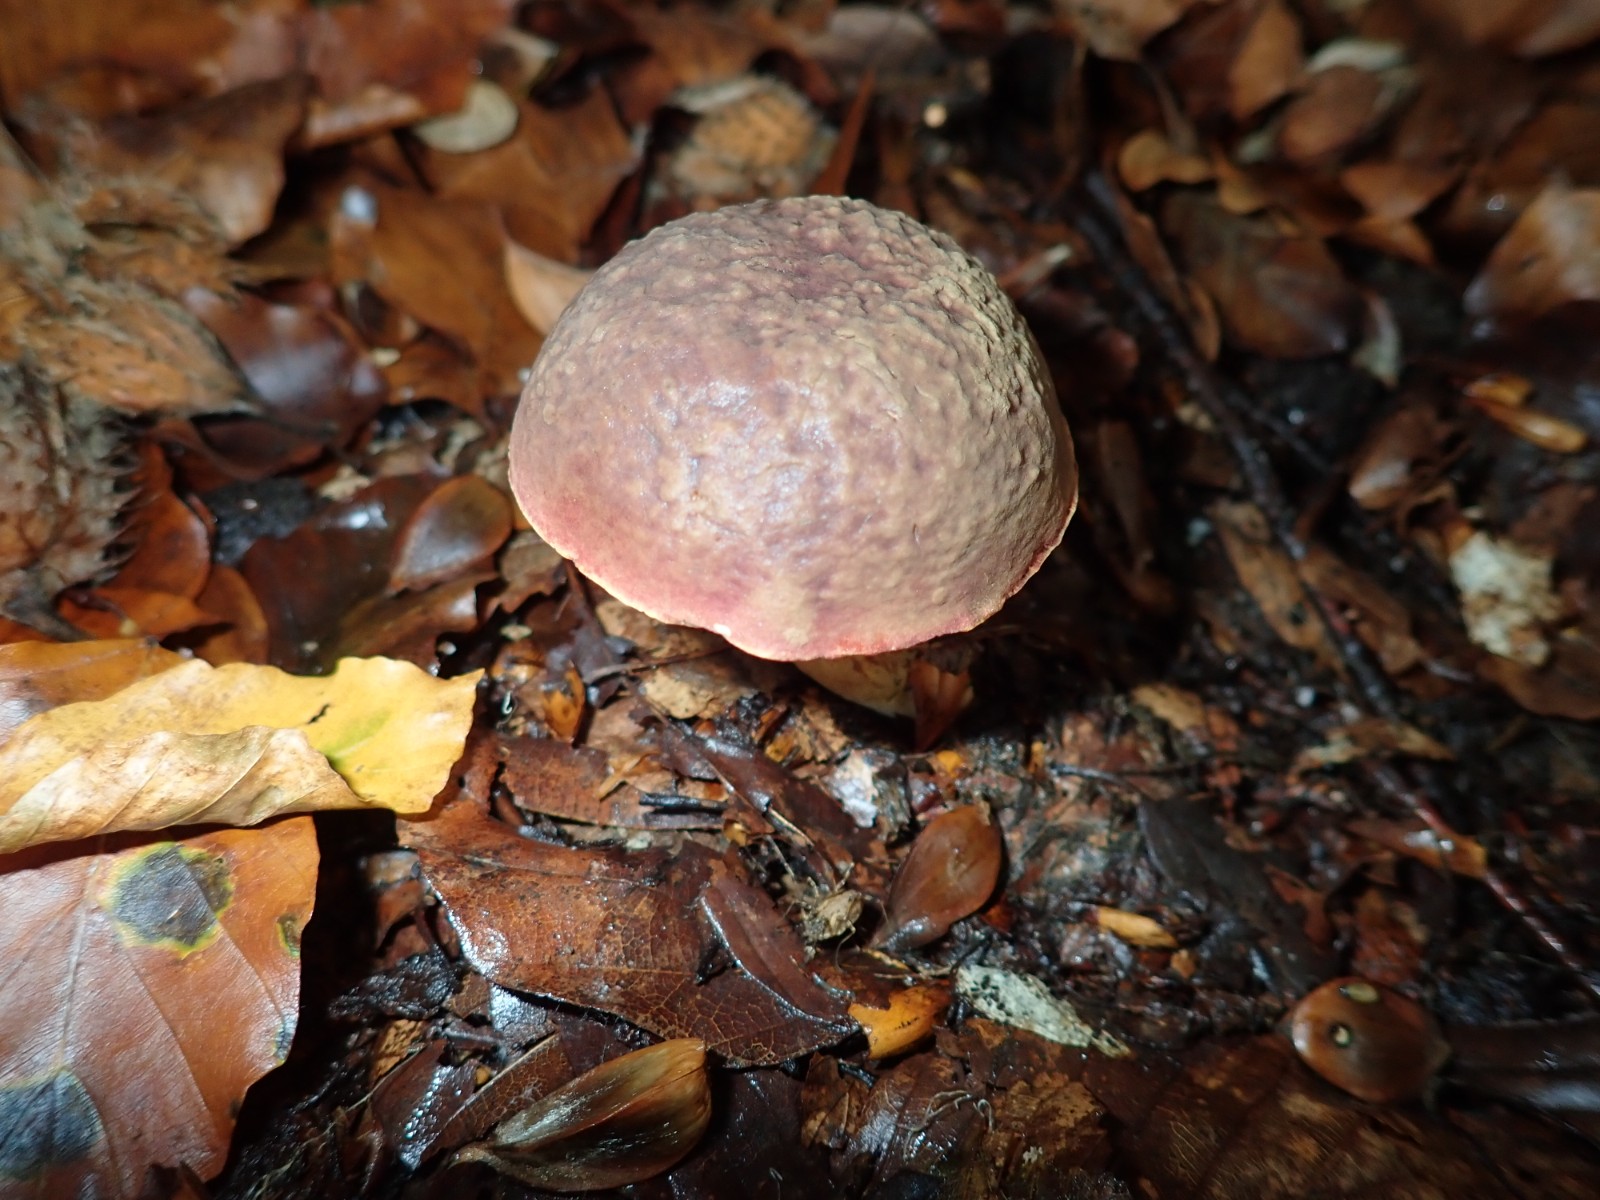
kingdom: Fungi
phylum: Basidiomycota
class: Agaricomycetes
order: Boletales
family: Boletaceae
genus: Xerocomellus
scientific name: Xerocomellus pruinatus
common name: dugget rørhat
